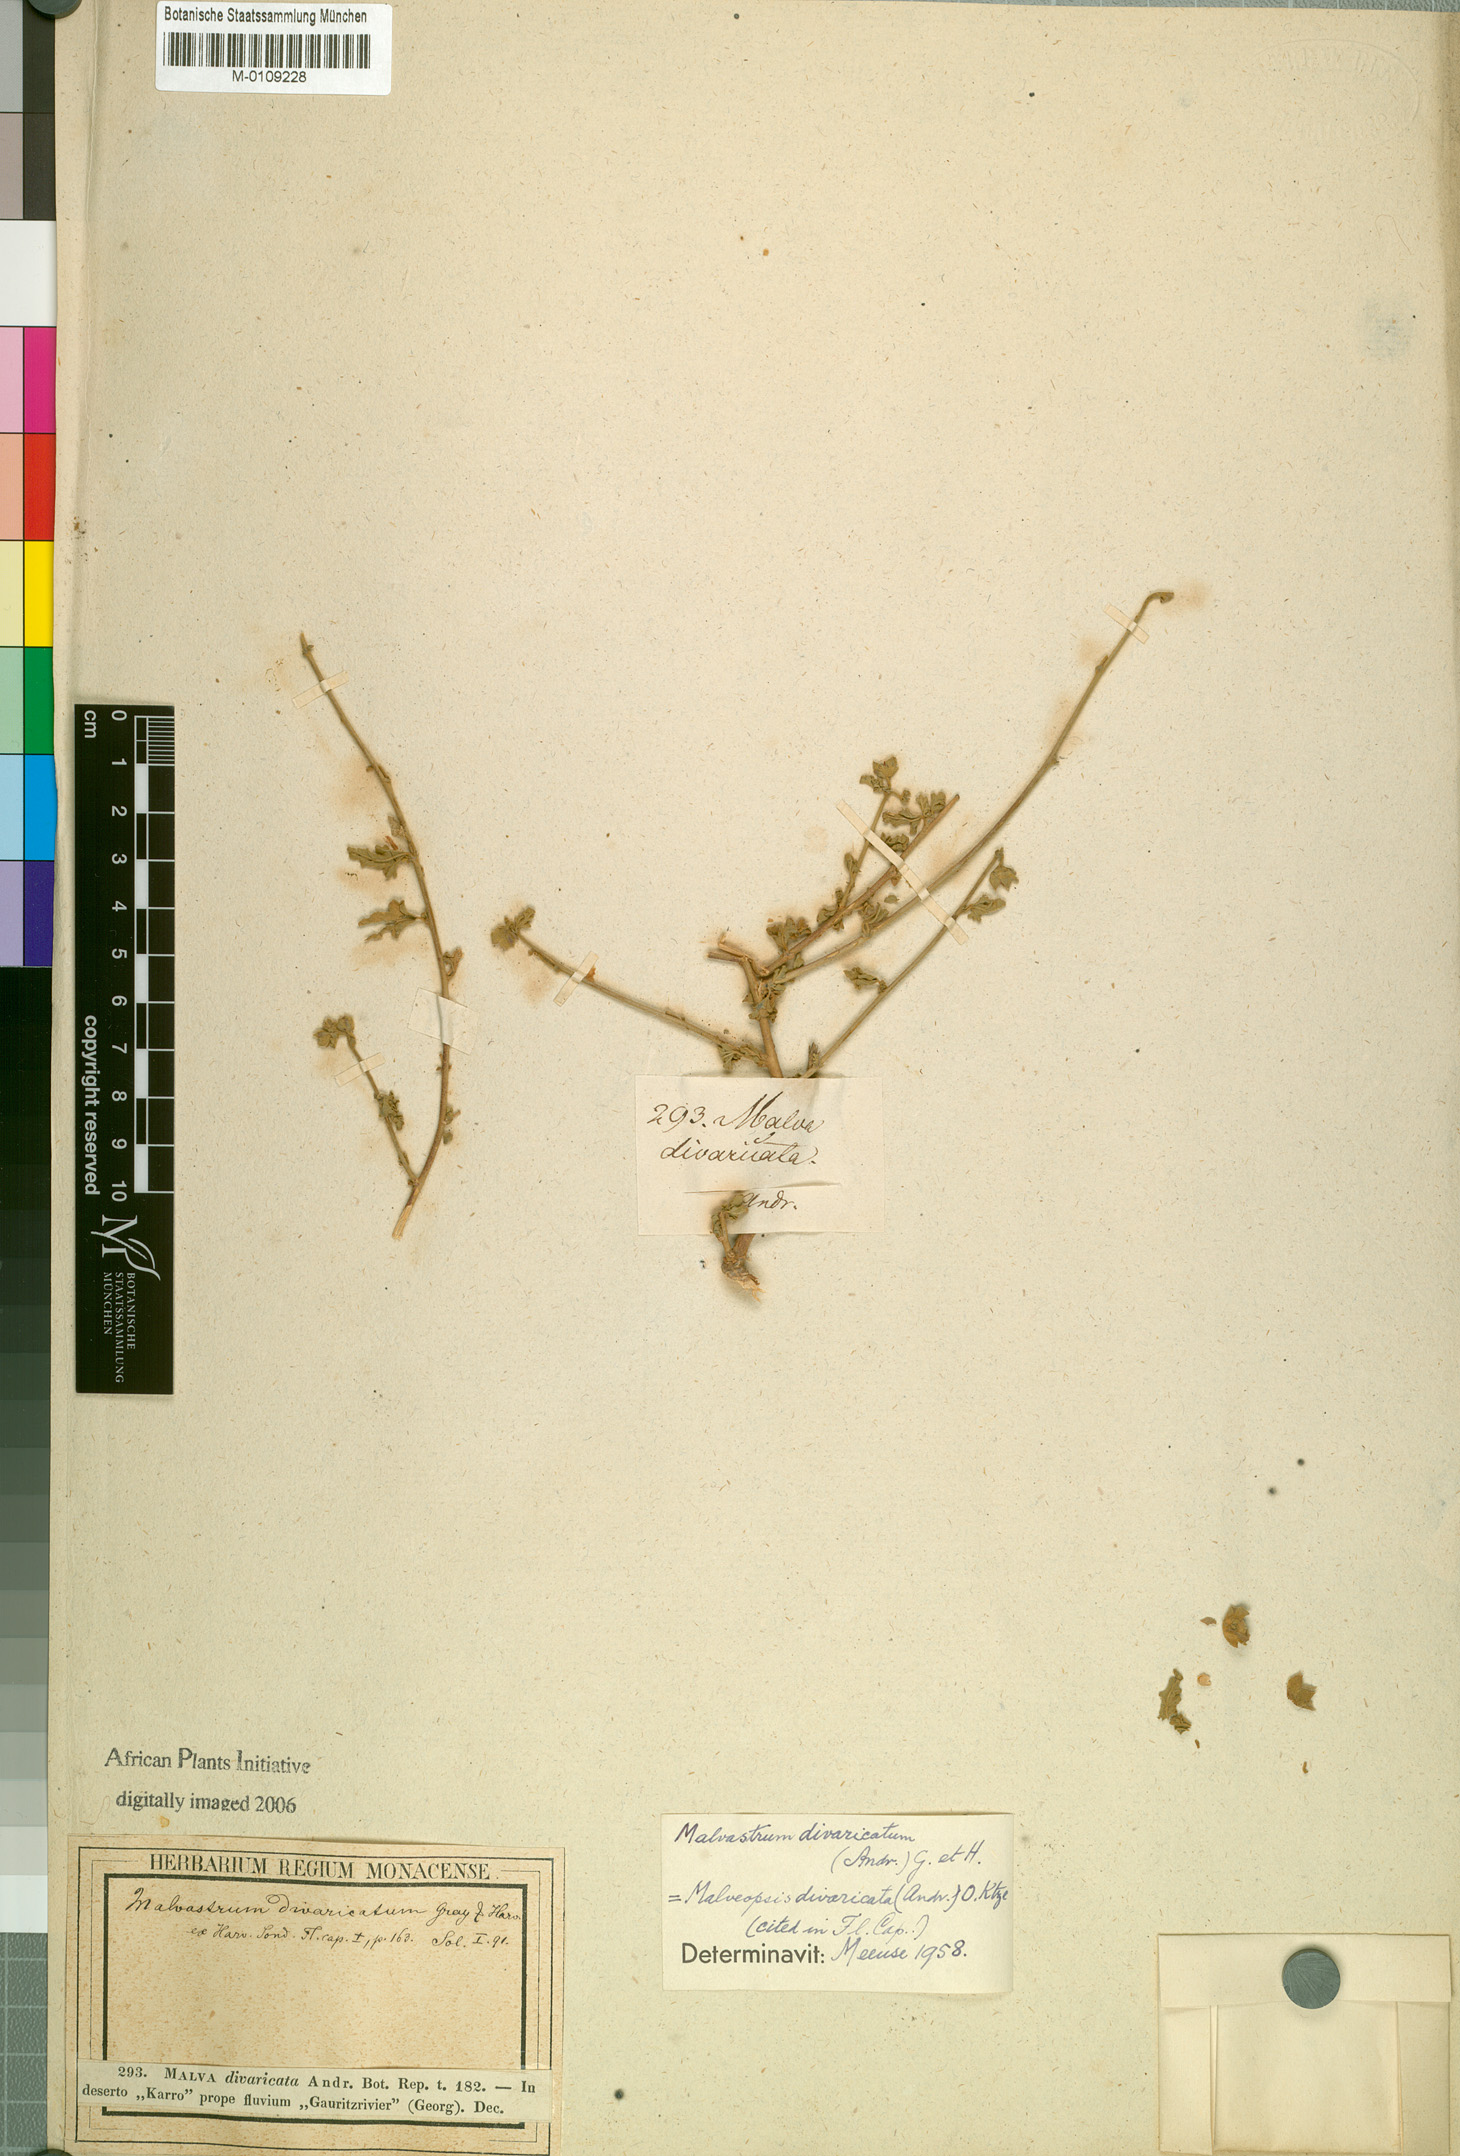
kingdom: Plantae
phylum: Tracheophyta
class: Magnoliopsida
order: Malvales
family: Malvaceae
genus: Anisodontea
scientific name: Anisodontea capensis
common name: Cape african-queen
